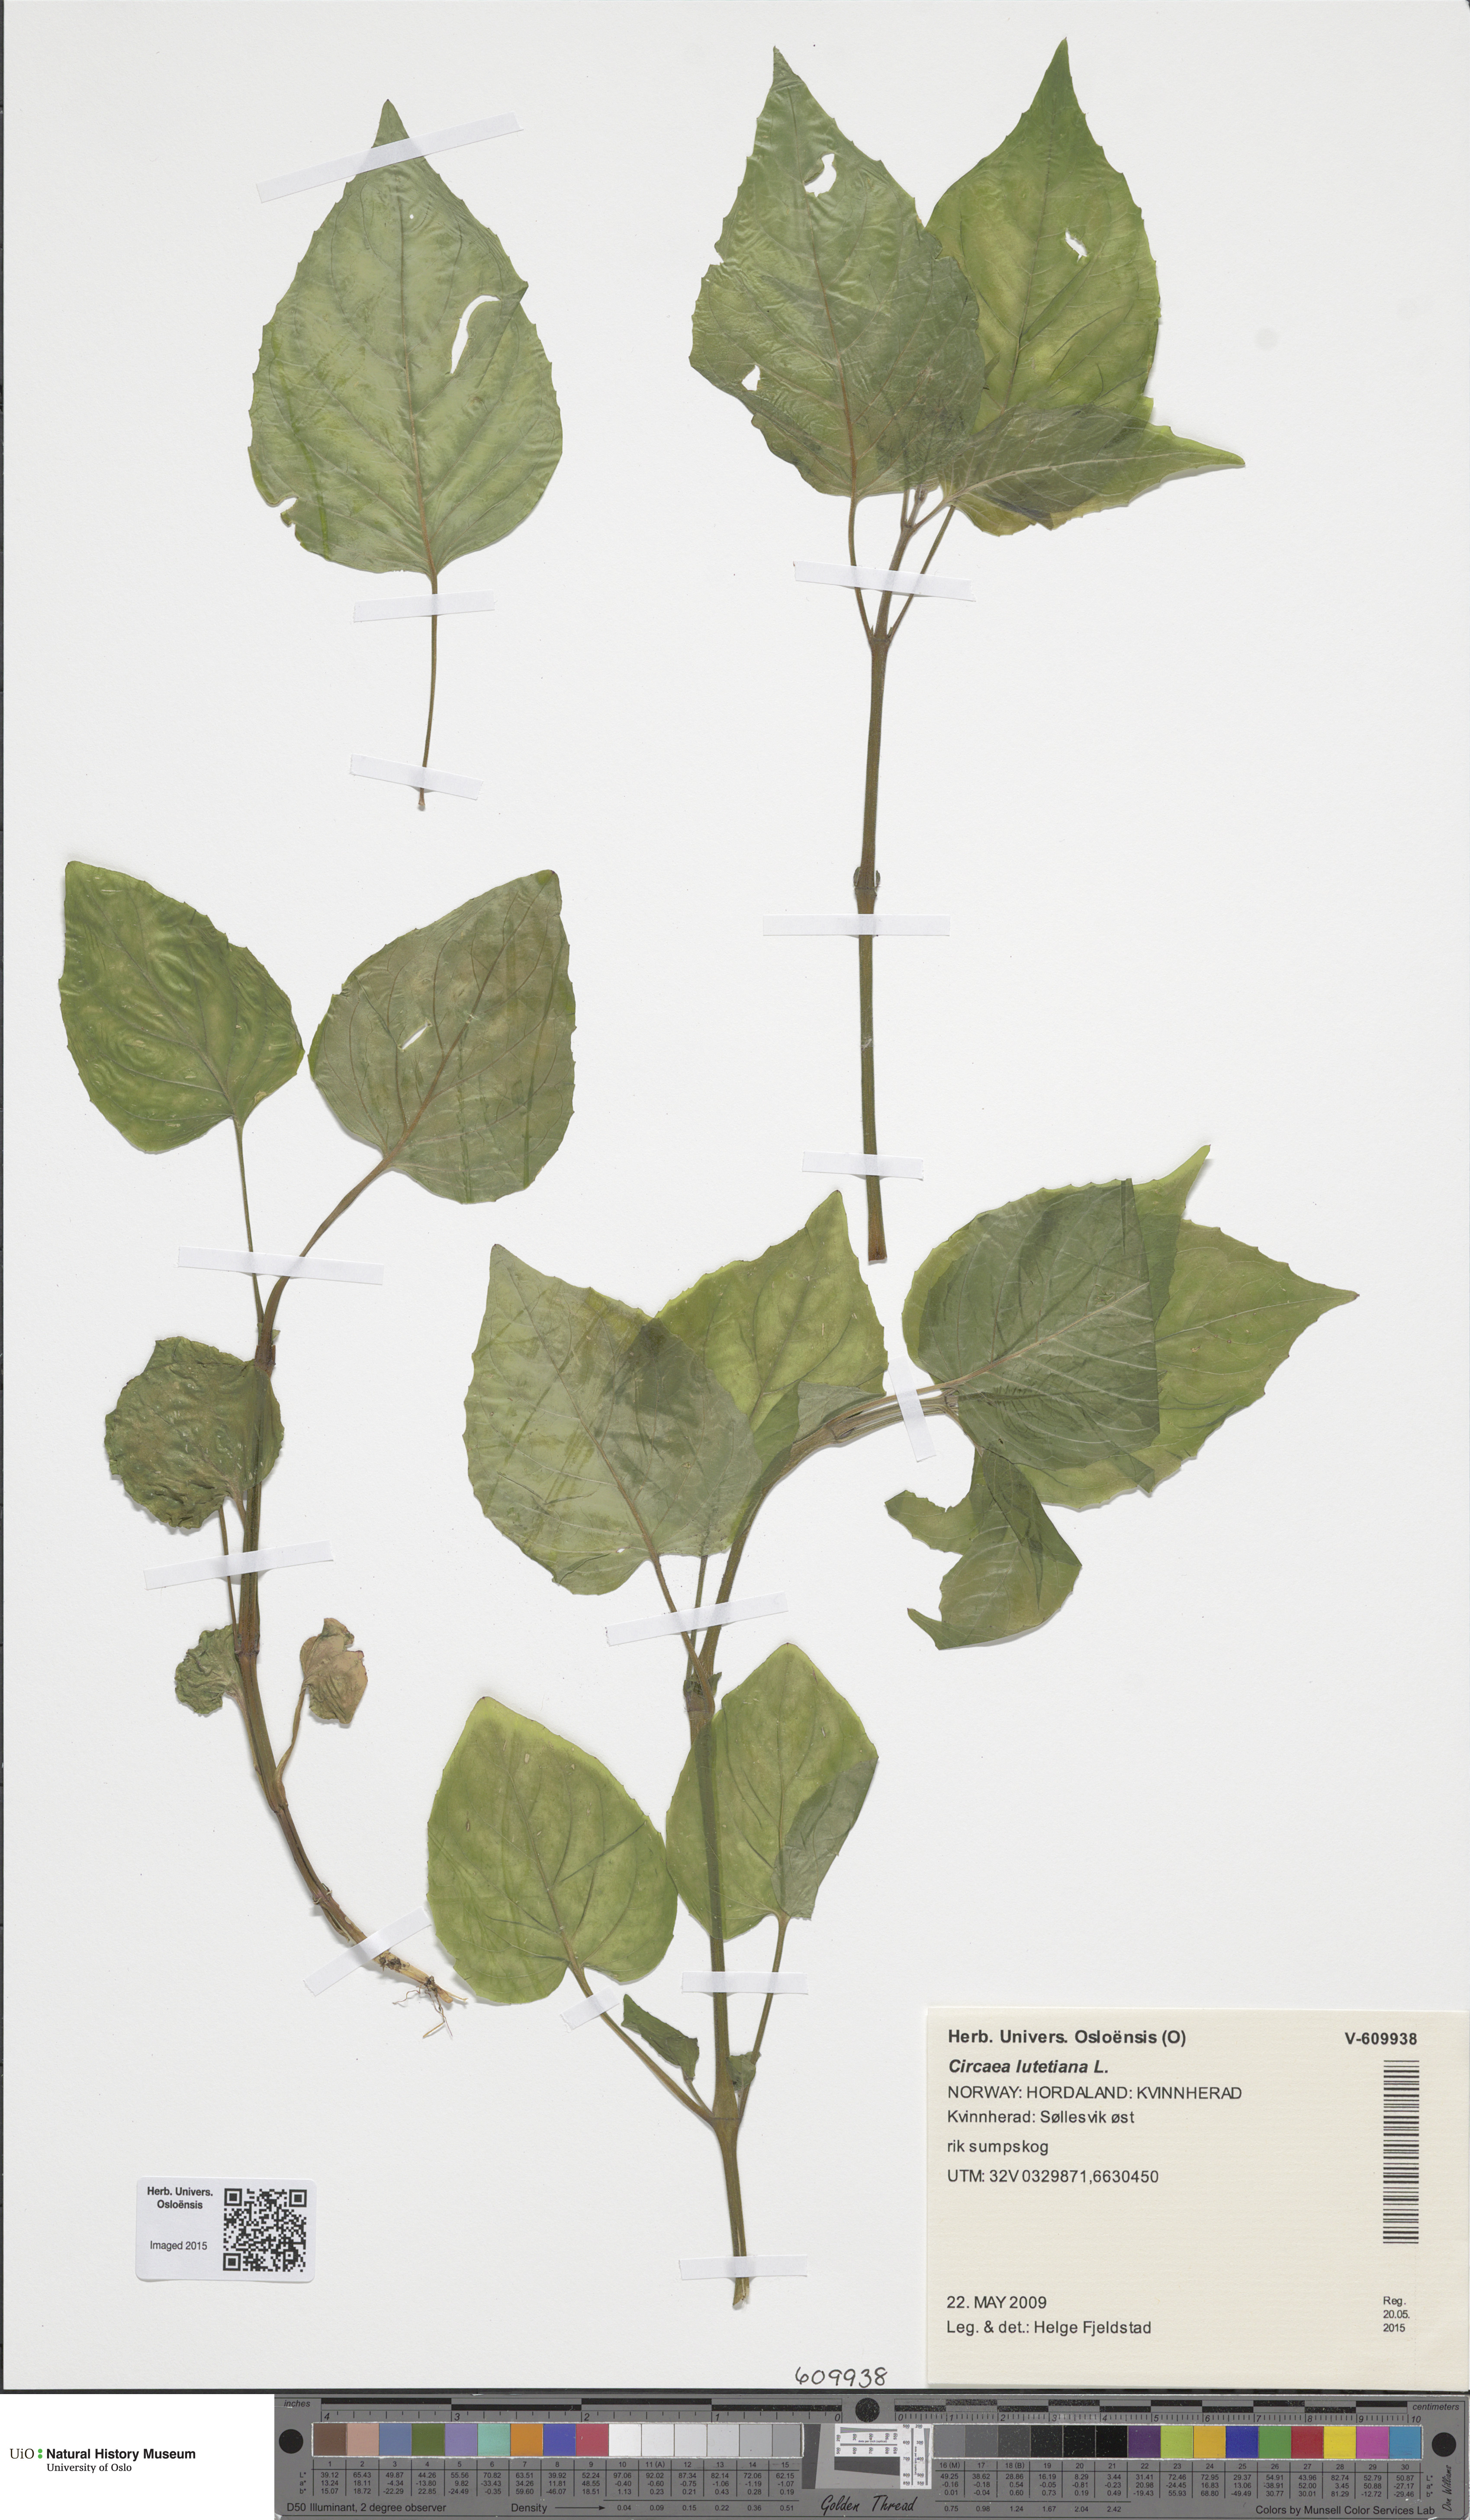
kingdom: Plantae
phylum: Tracheophyta
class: Magnoliopsida
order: Myrtales
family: Onagraceae
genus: Circaea
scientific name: Circaea lutetiana
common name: Enchanter's-nightshade
